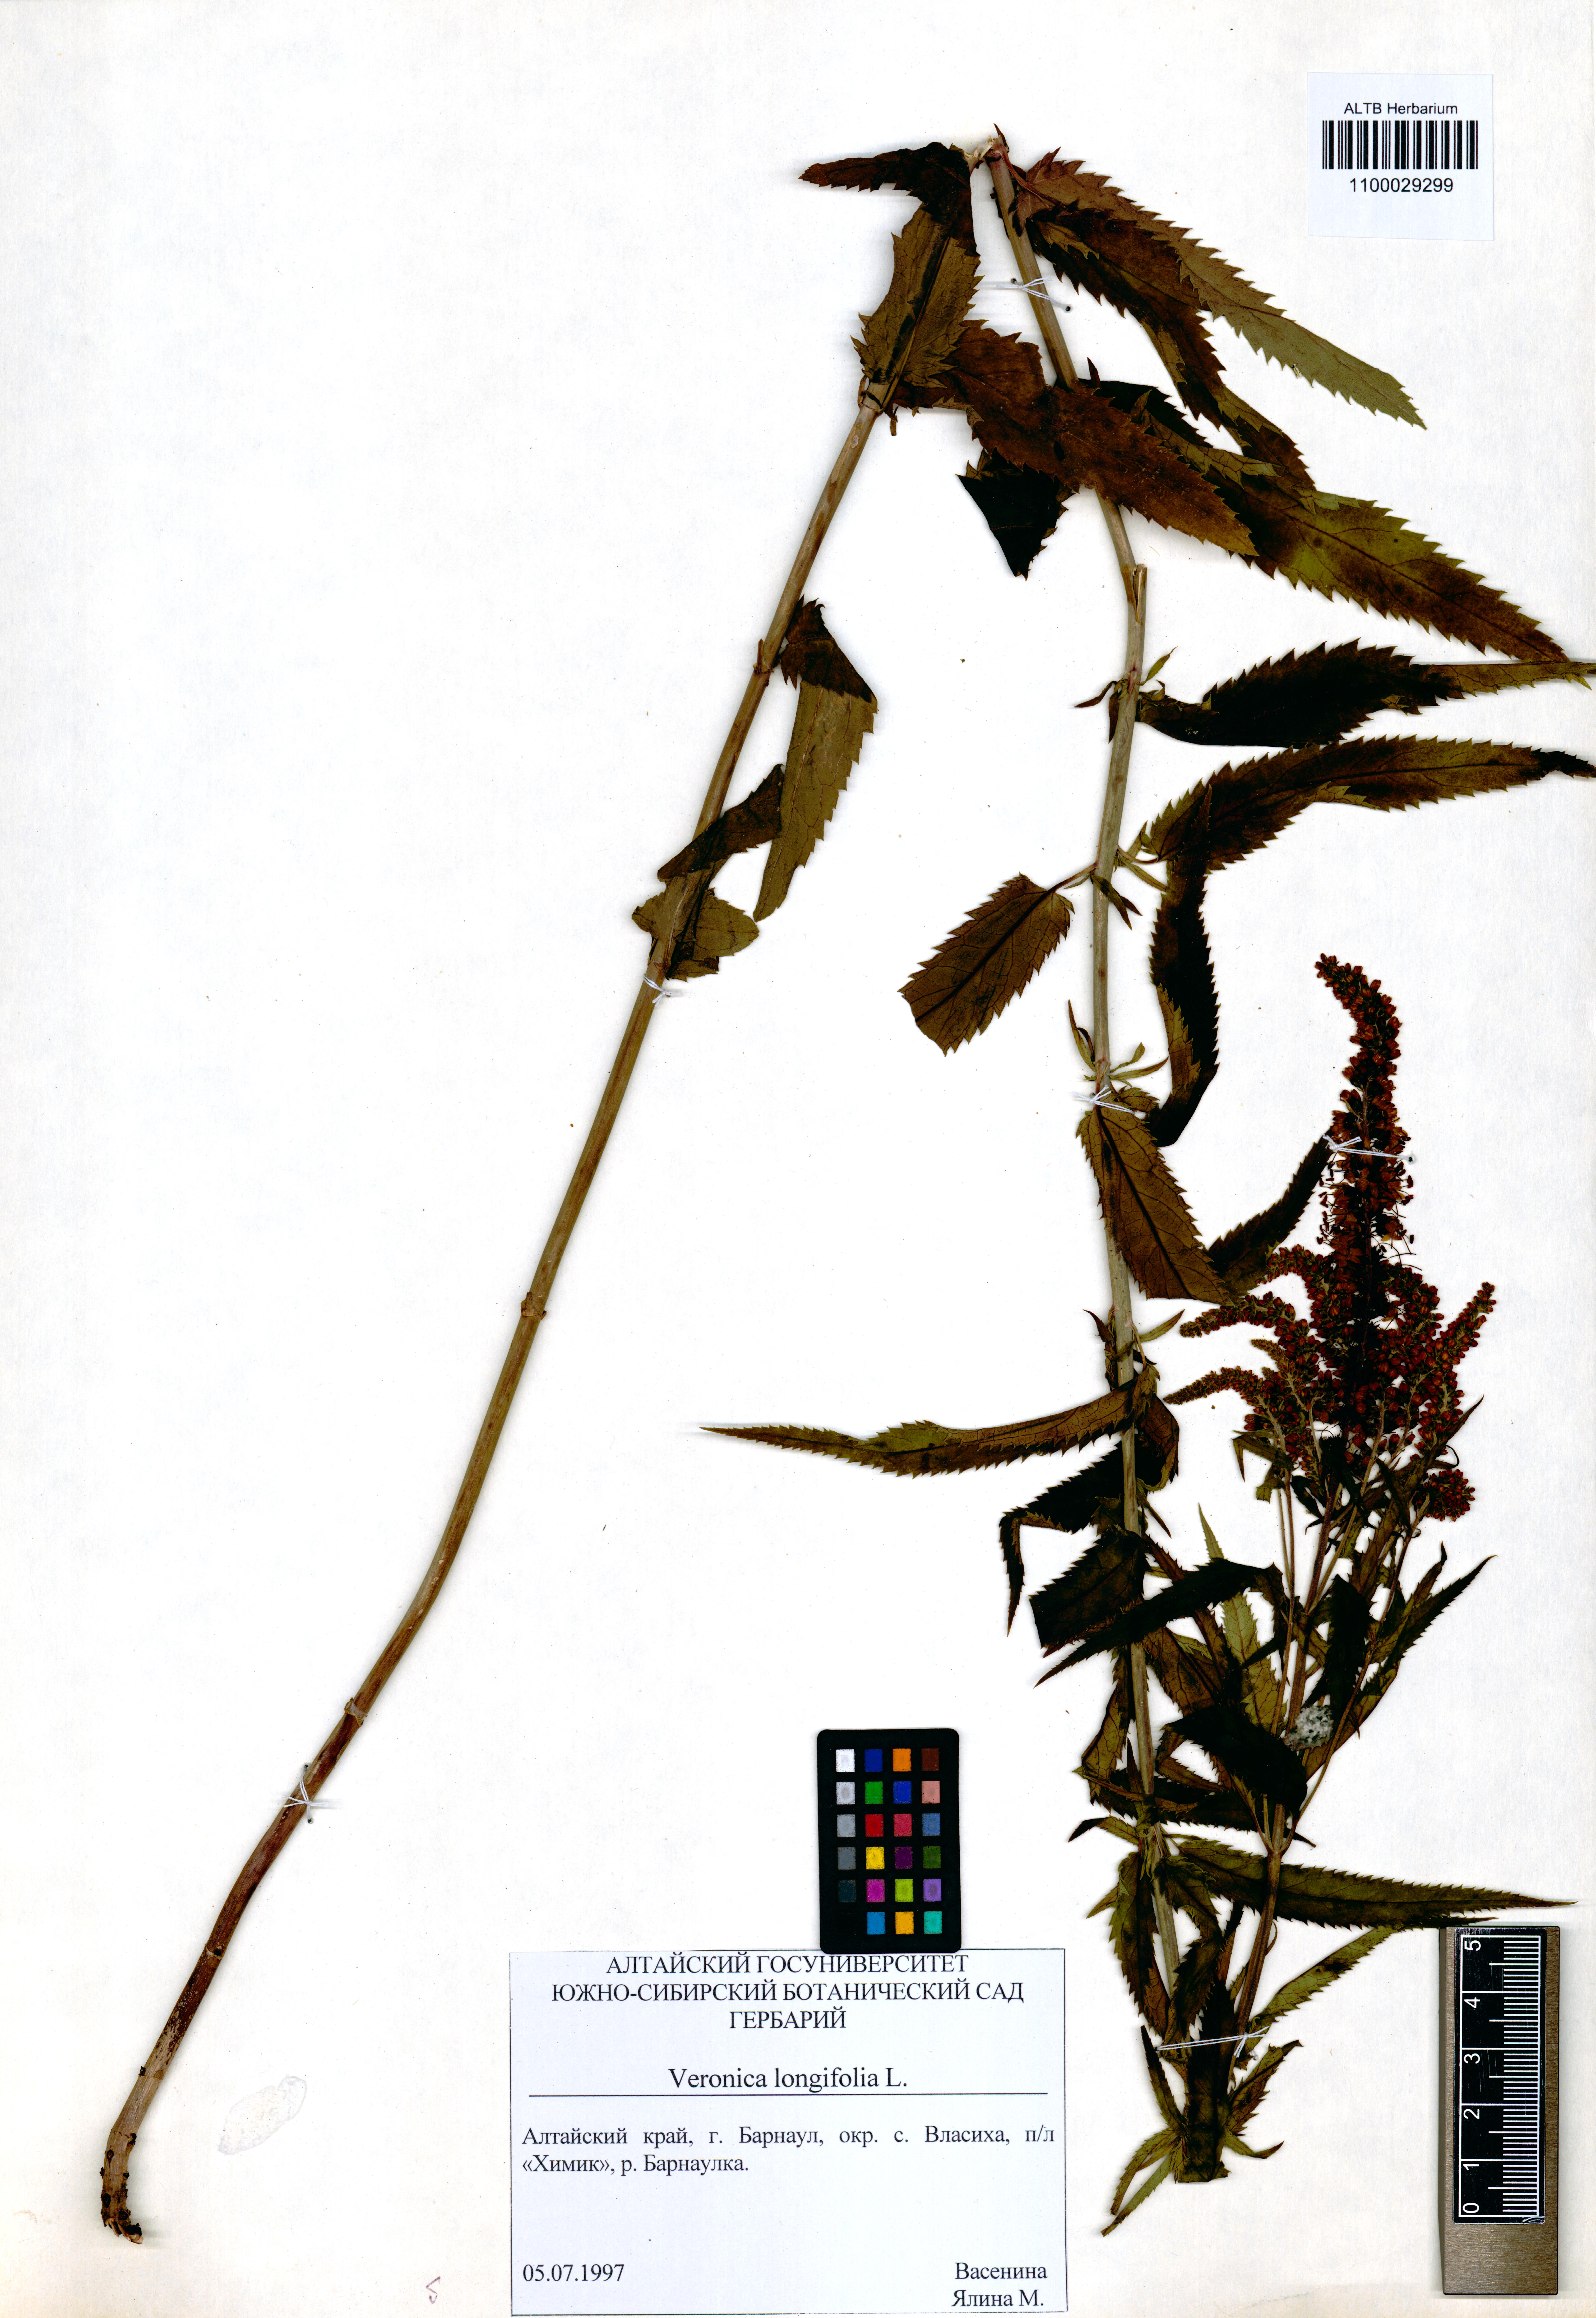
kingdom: Plantae
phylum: Tracheophyta
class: Magnoliopsida
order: Lamiales
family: Plantaginaceae
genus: Veronica
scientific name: Veronica longifolia
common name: Garden speedwell
